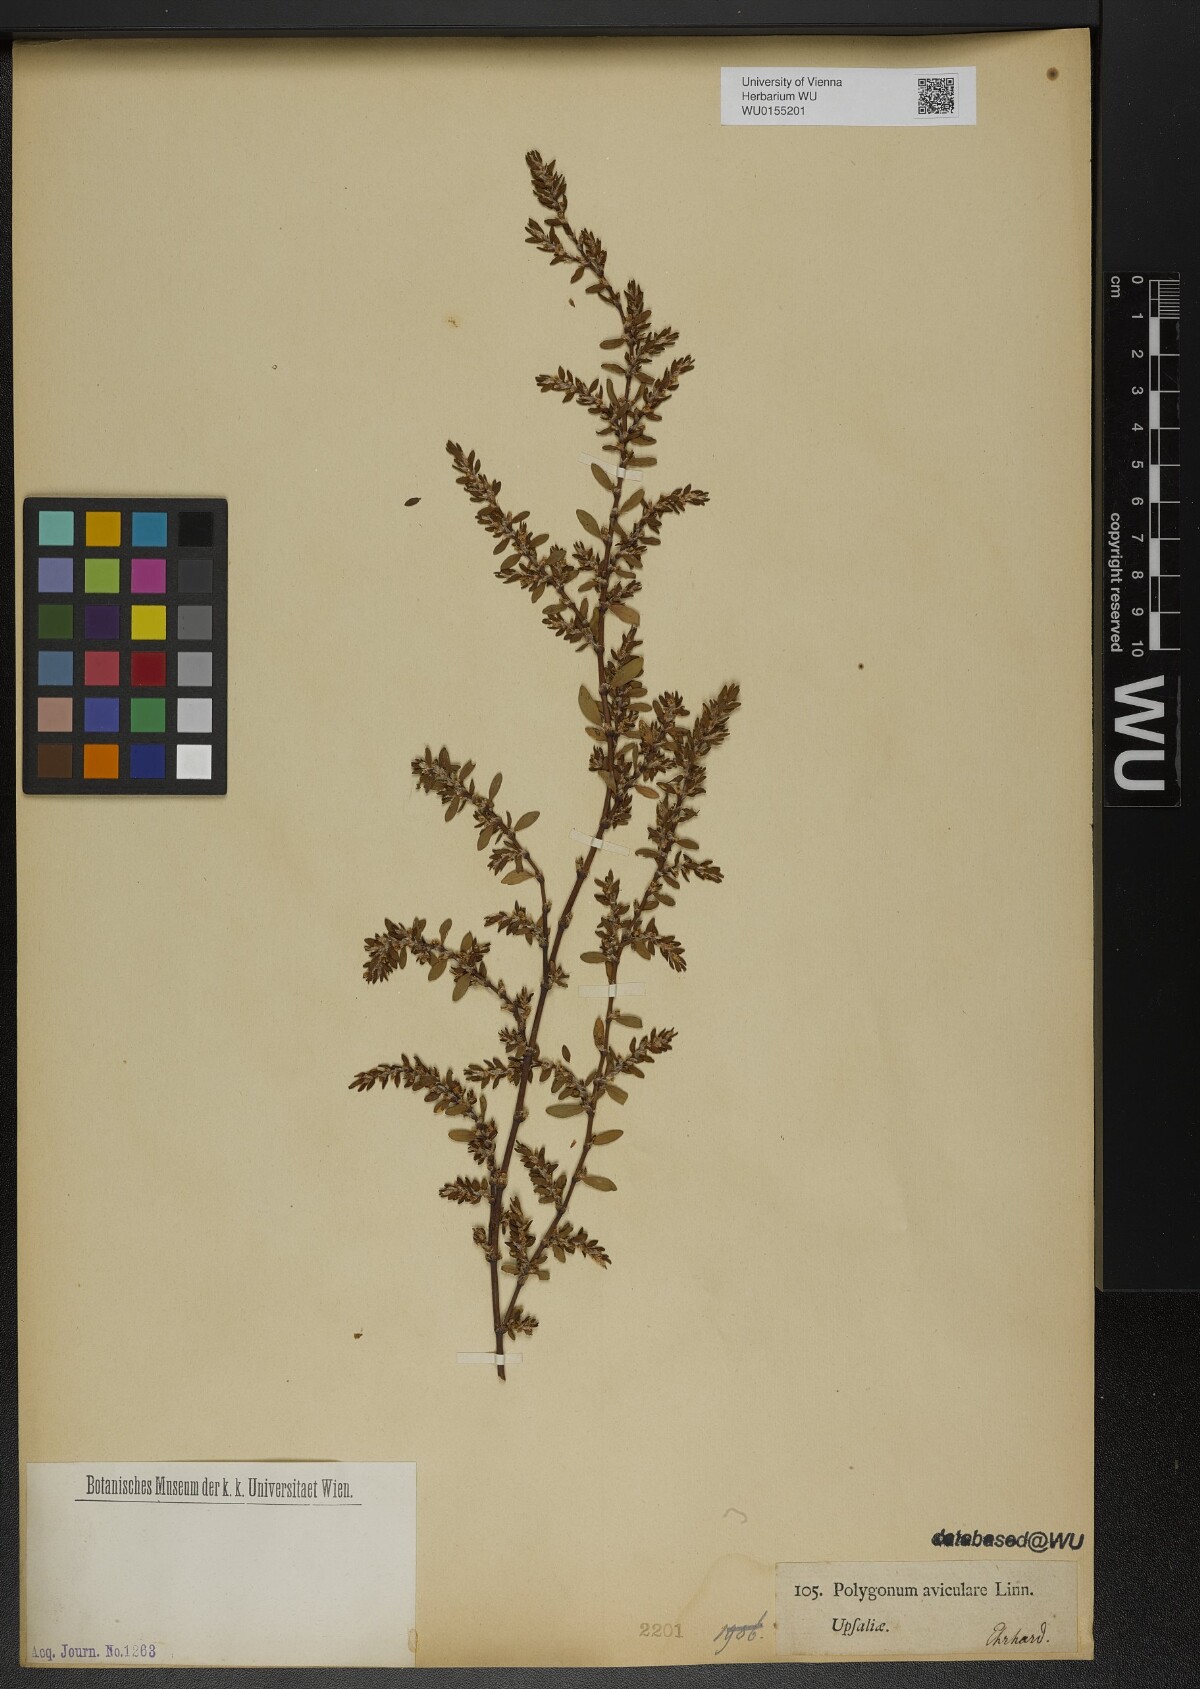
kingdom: Plantae
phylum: Tracheophyta
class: Magnoliopsida
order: Caryophyllales
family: Polygonaceae
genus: Polygonum
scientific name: Polygonum aviculare
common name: Prostrate knotweed
